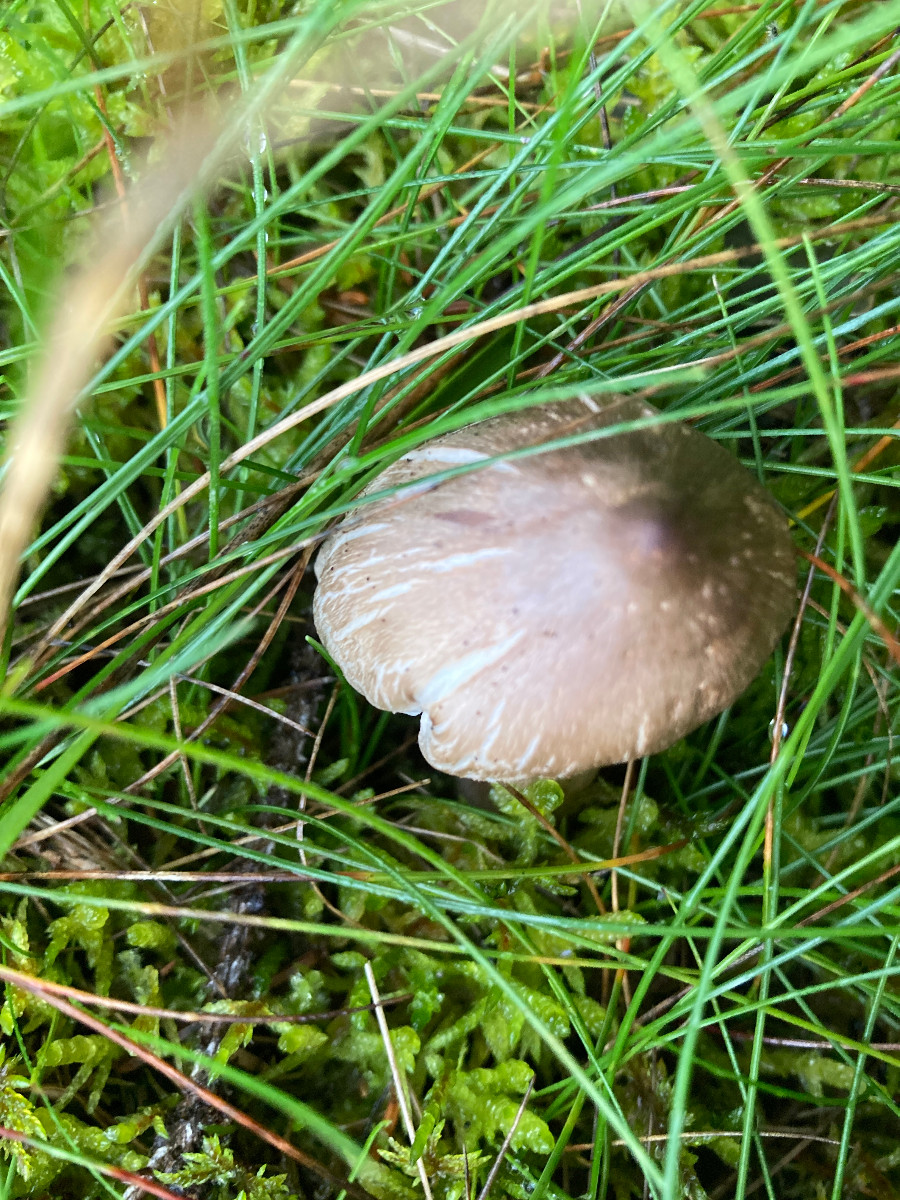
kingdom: Fungi
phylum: Basidiomycota
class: Agaricomycetes
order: Agaricales
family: Tricholomataceae
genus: Tricholoma
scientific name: Tricholoma
